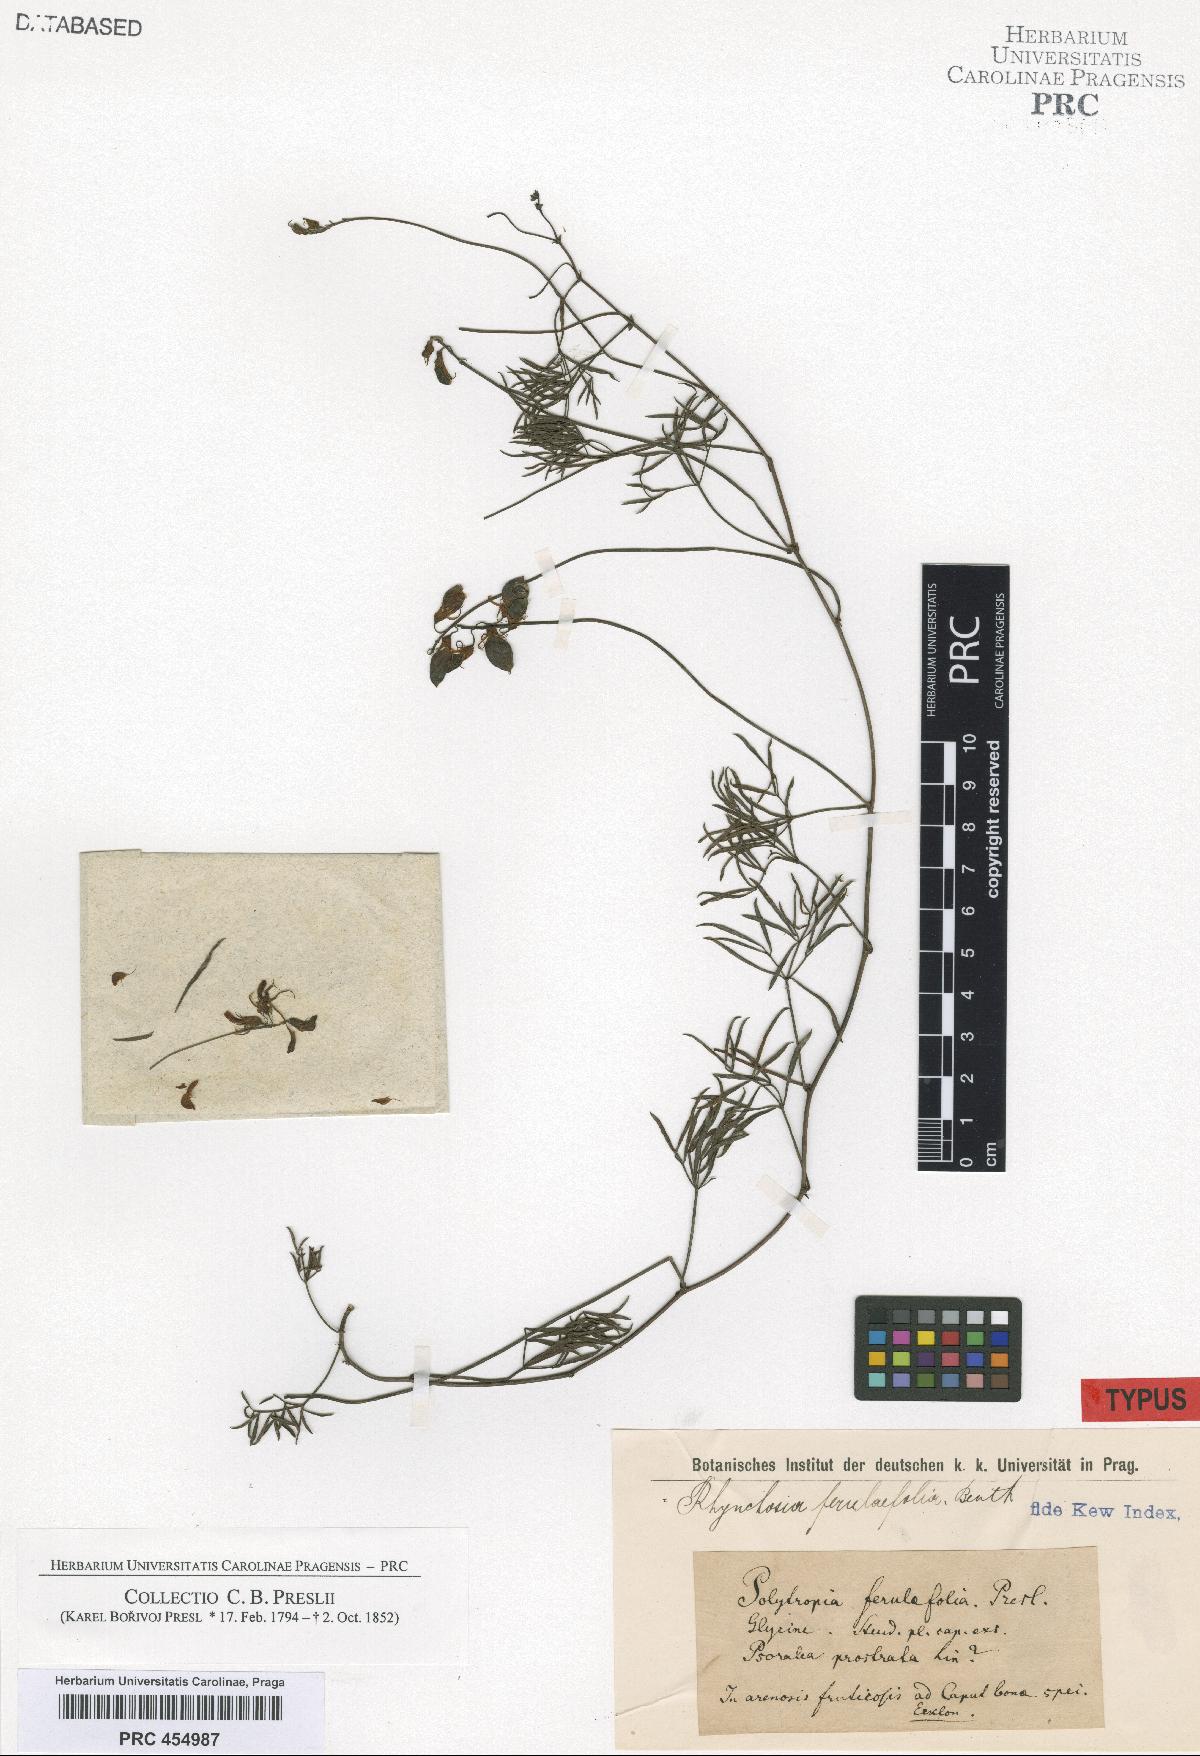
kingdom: Plantae
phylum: Tracheophyta
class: Magnoliopsida
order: Fabales
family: Fabaceae
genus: Rhynchosia
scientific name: Rhynchosia ferulifolia
